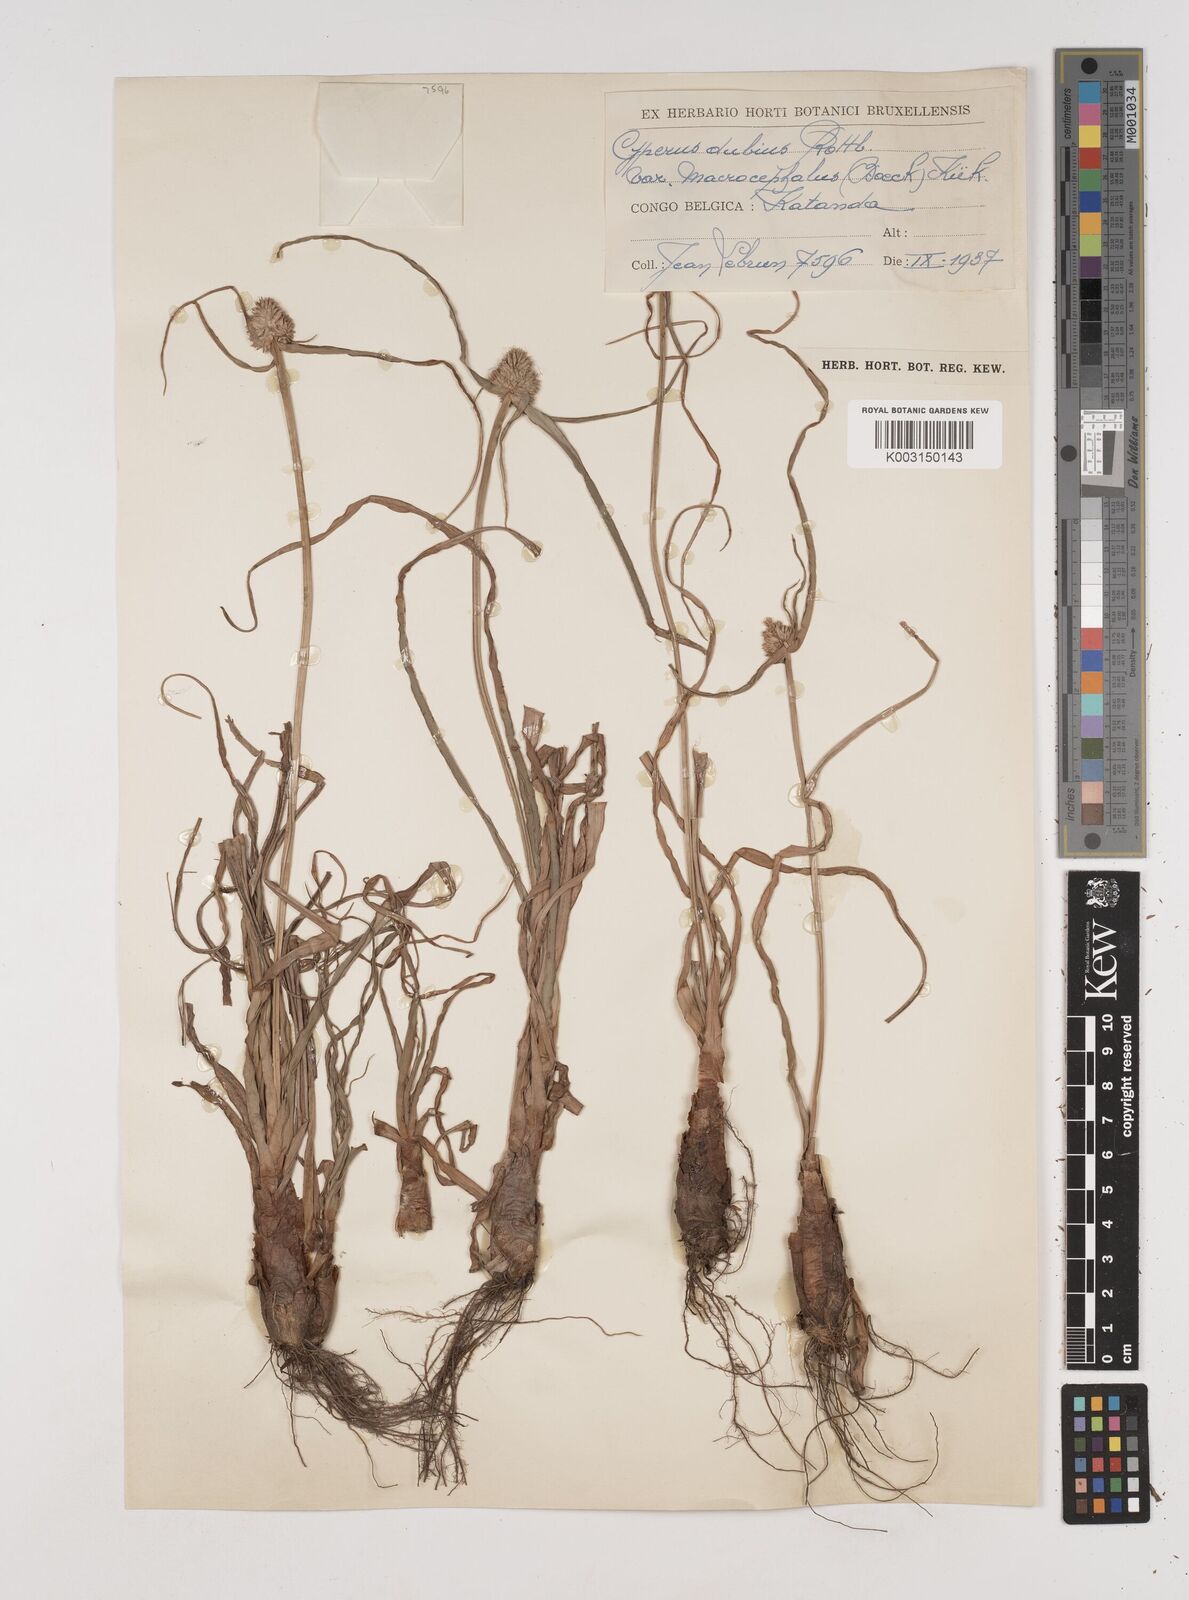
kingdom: Plantae
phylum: Tracheophyta
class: Liliopsida
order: Poales
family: Cyperaceae
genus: Cyperus
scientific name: Cyperus dubius
